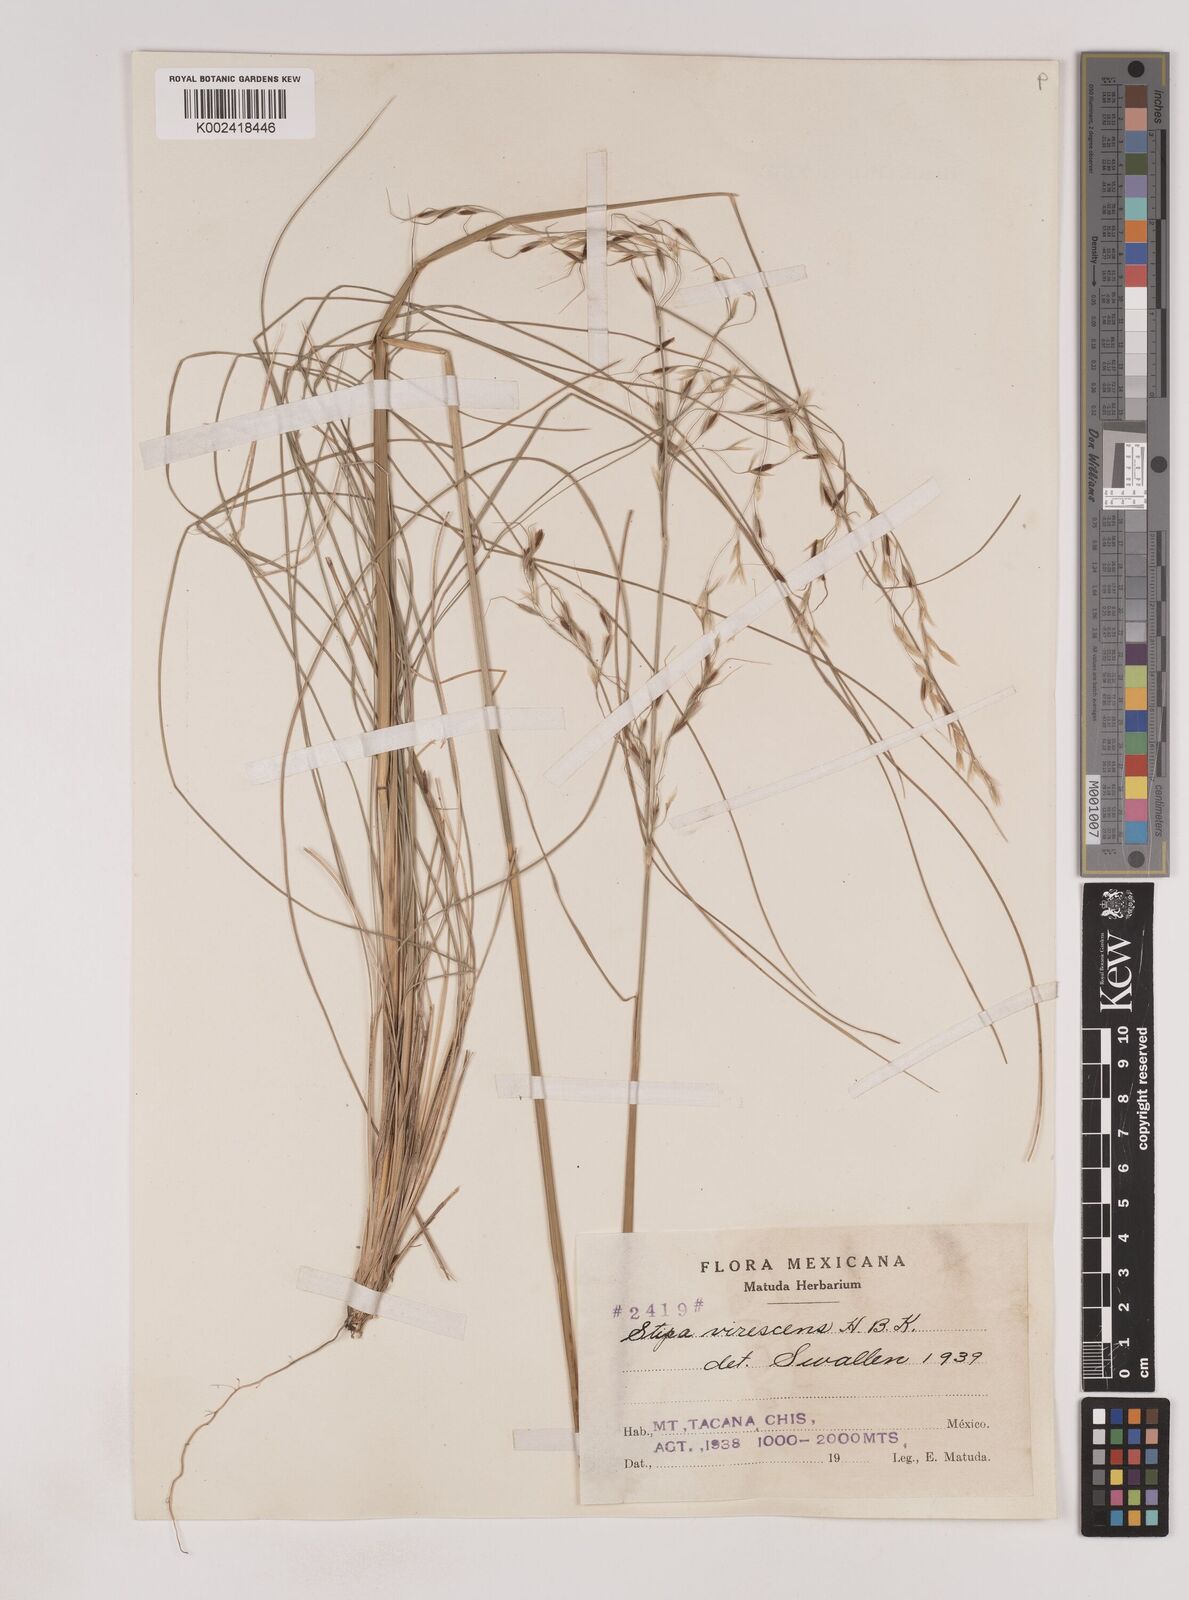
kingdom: Plantae
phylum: Tracheophyta
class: Liliopsida
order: Poales
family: Poaceae
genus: Piptochaetium
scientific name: Piptochaetium virescens
